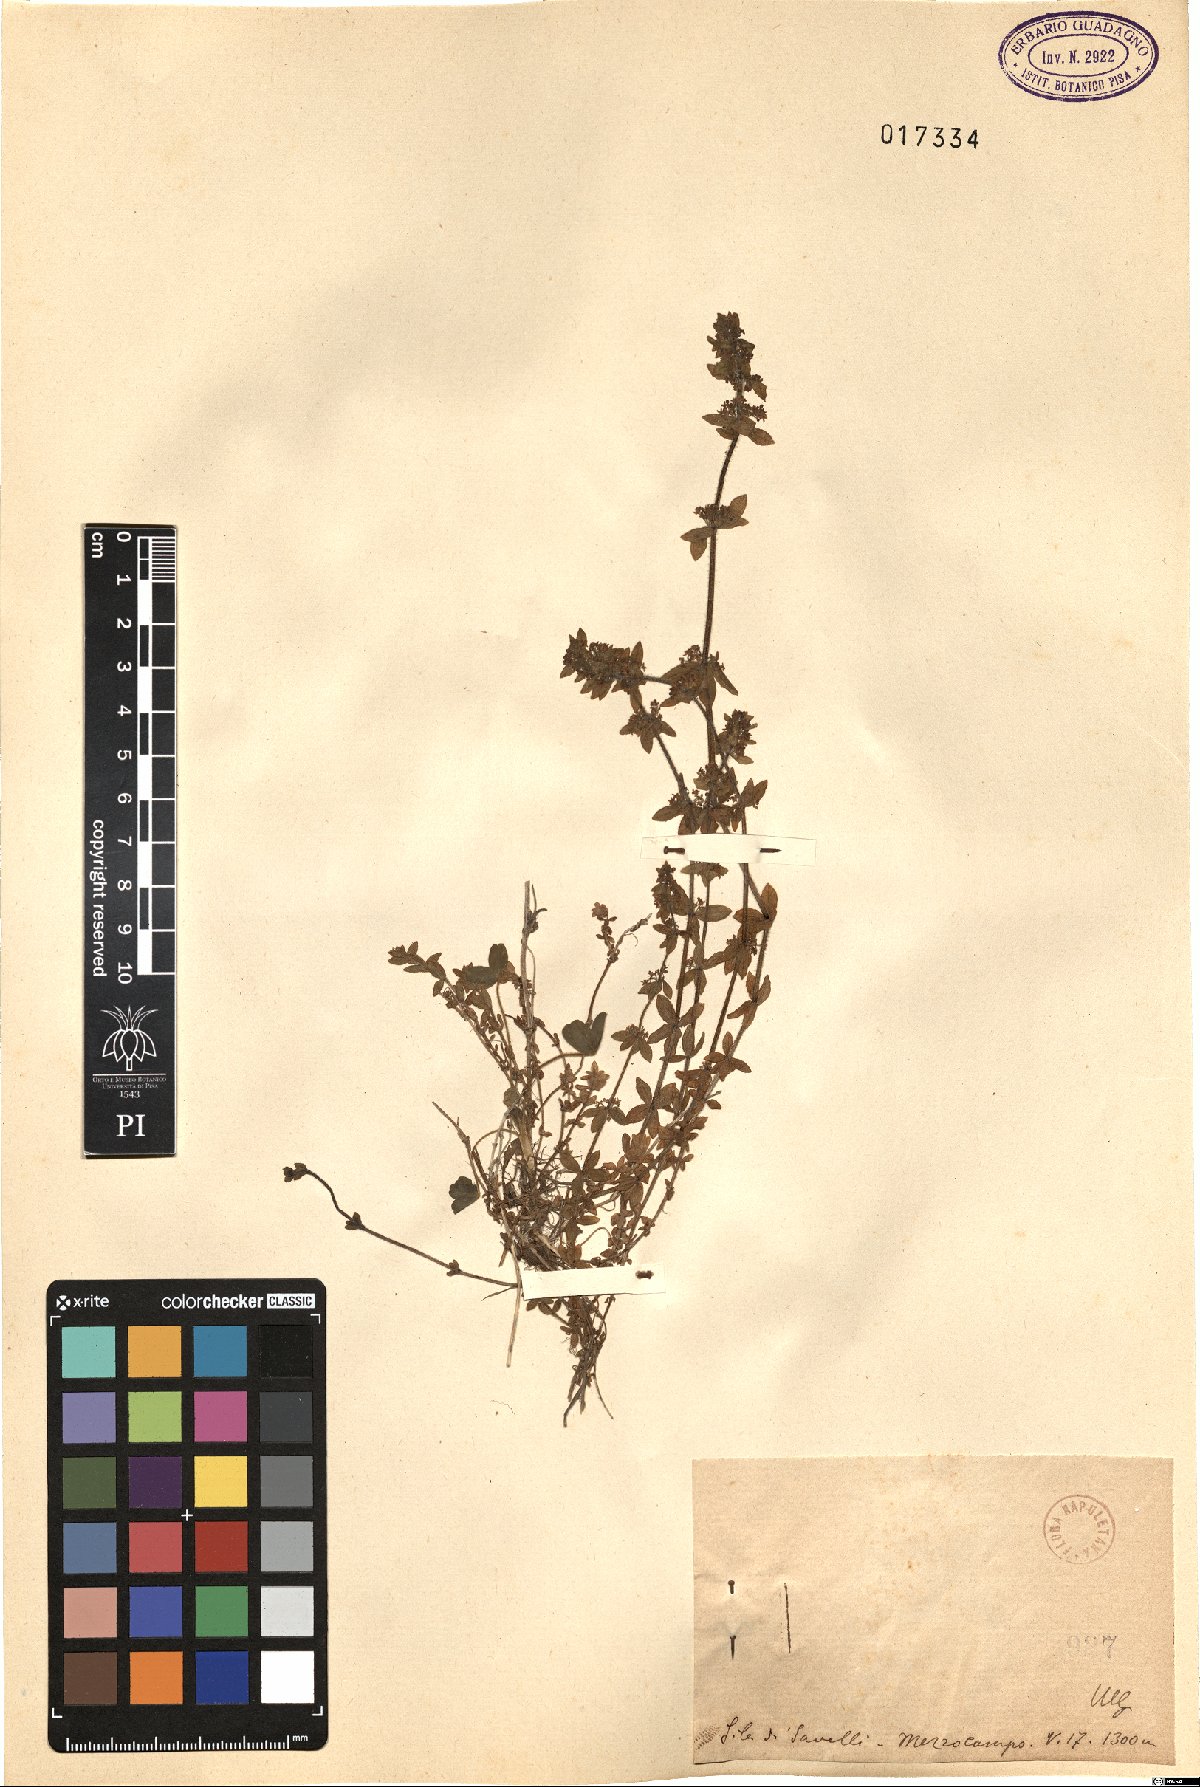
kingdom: Plantae
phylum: Tracheophyta
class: Magnoliopsida
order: Gentianales
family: Rubiaceae
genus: Galium
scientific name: Galium
